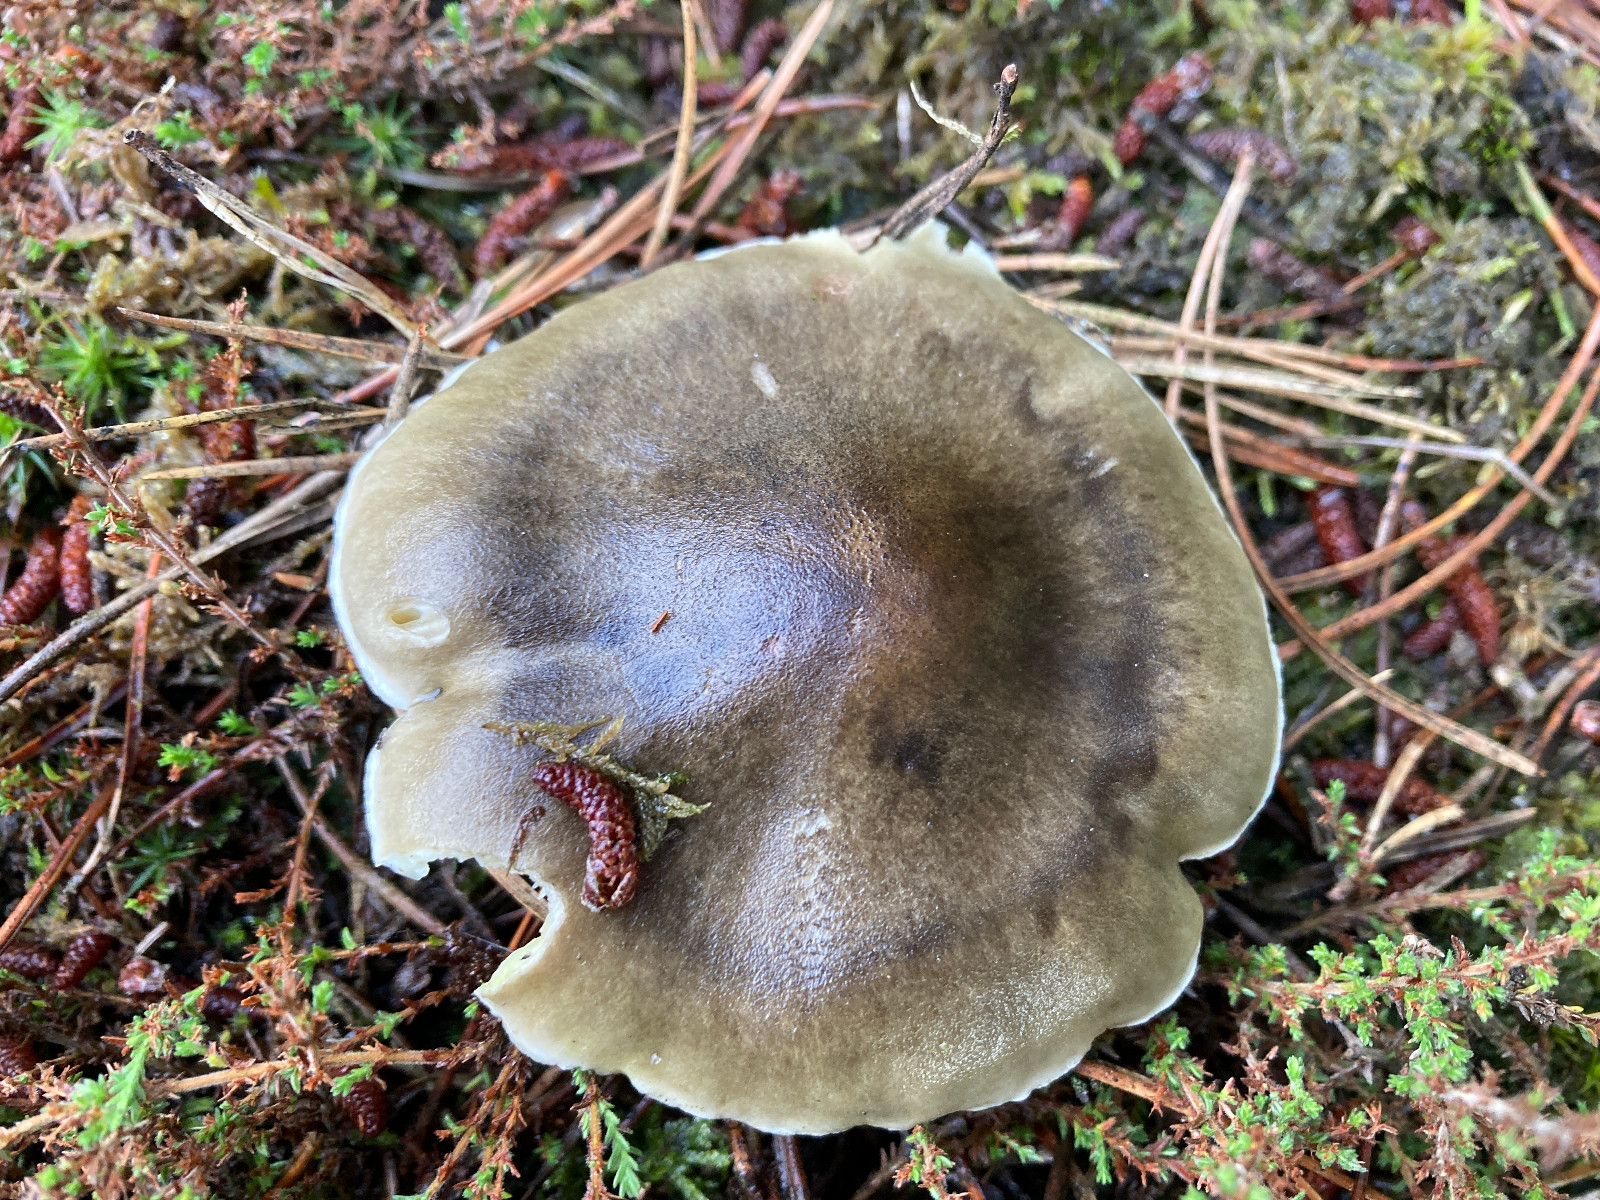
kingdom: Fungi
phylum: Basidiomycota
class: Agaricomycetes
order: Agaricales
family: Tricholomataceae
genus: Tricholoma
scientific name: Tricholoma saponaceum
